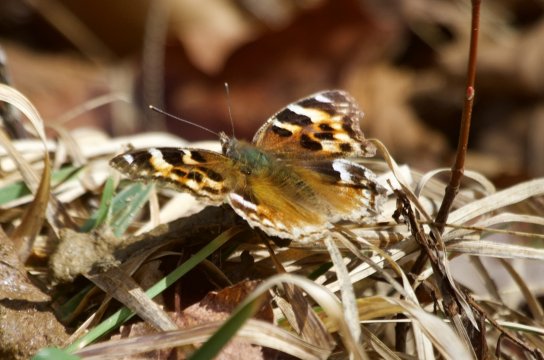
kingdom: Animalia
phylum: Arthropoda
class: Insecta
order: Lepidoptera
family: Nymphalidae
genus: Polygonia
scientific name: Polygonia vaualbum
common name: Compton Tortoiseshell
